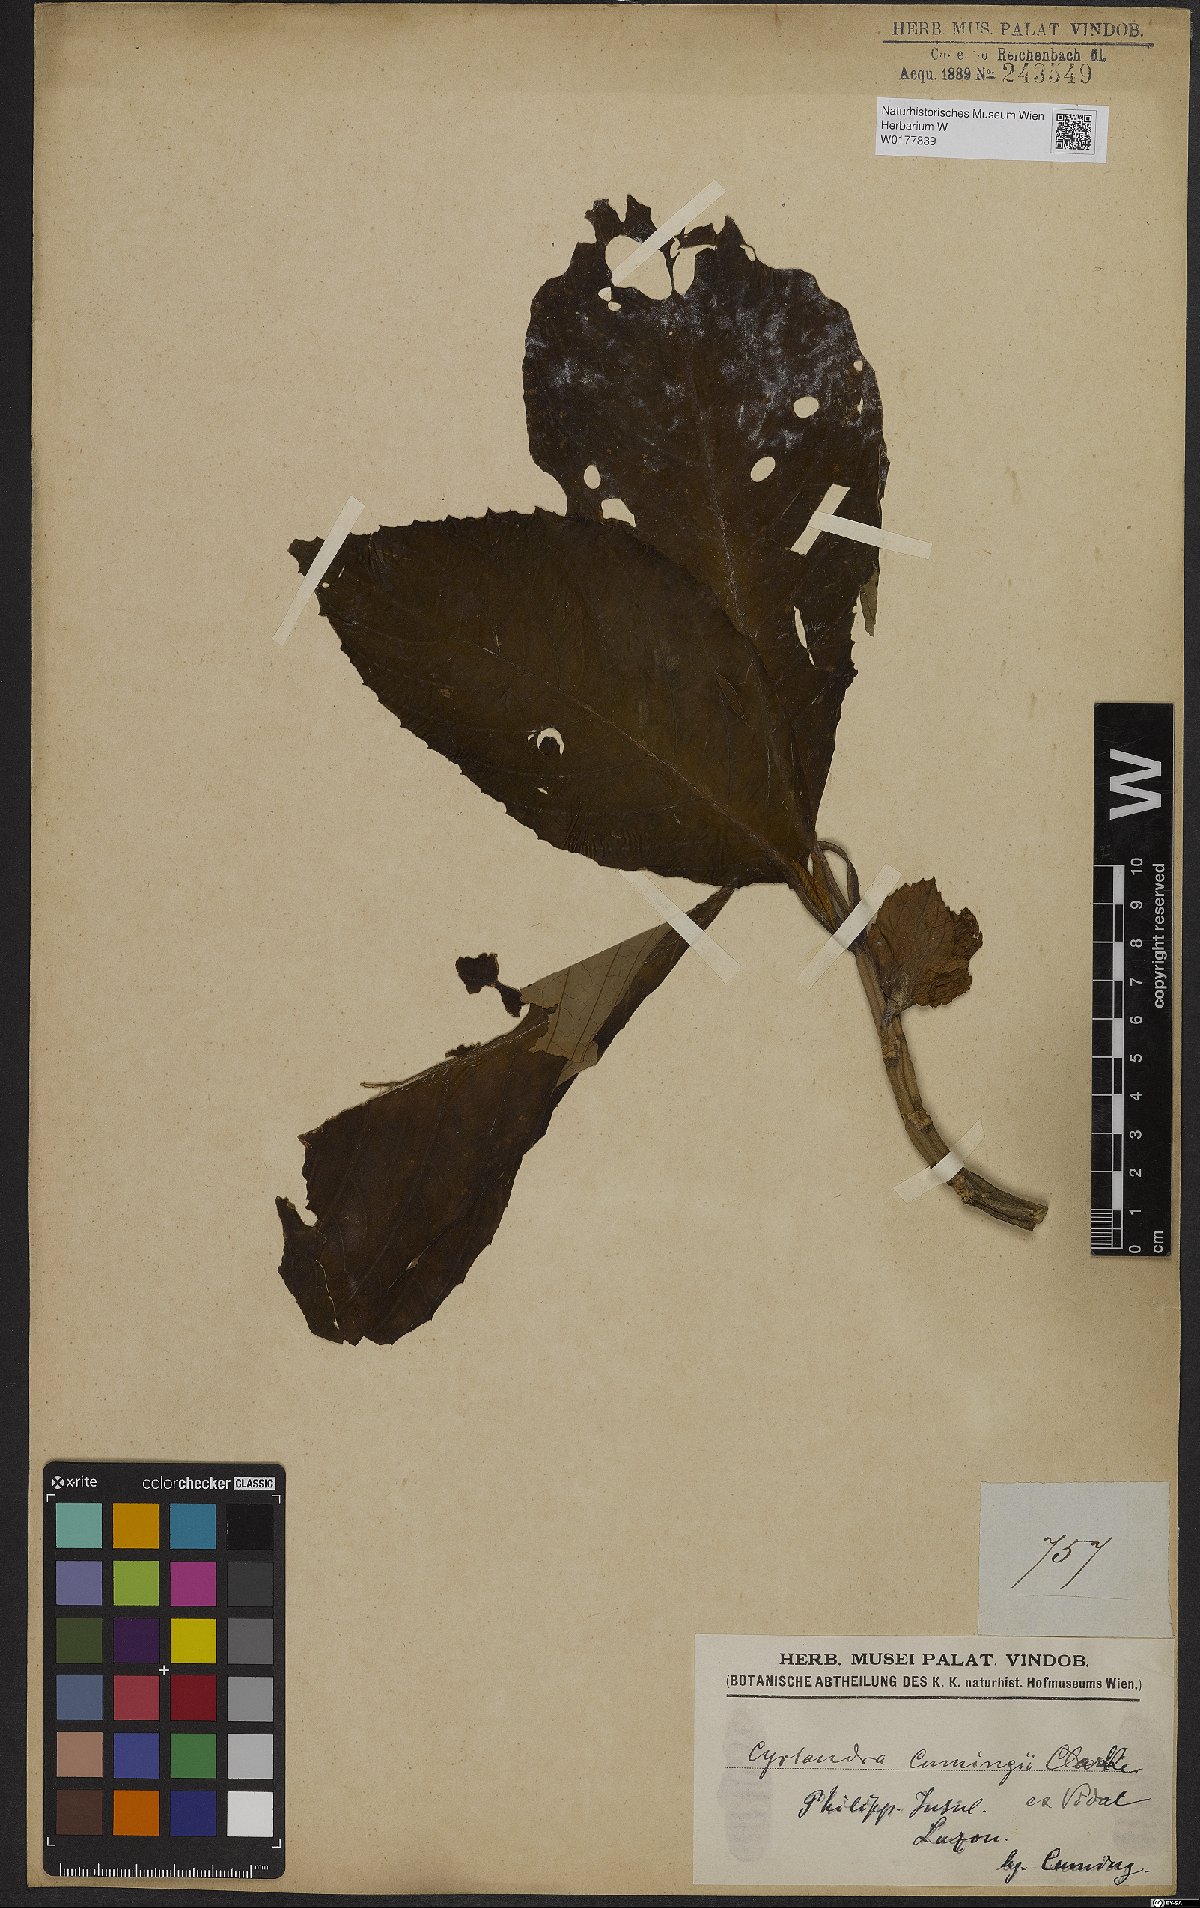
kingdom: Plantae
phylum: Tracheophyta
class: Magnoliopsida
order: Lamiales
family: Gesneriaceae
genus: Cyrtandra
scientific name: Cyrtandra
